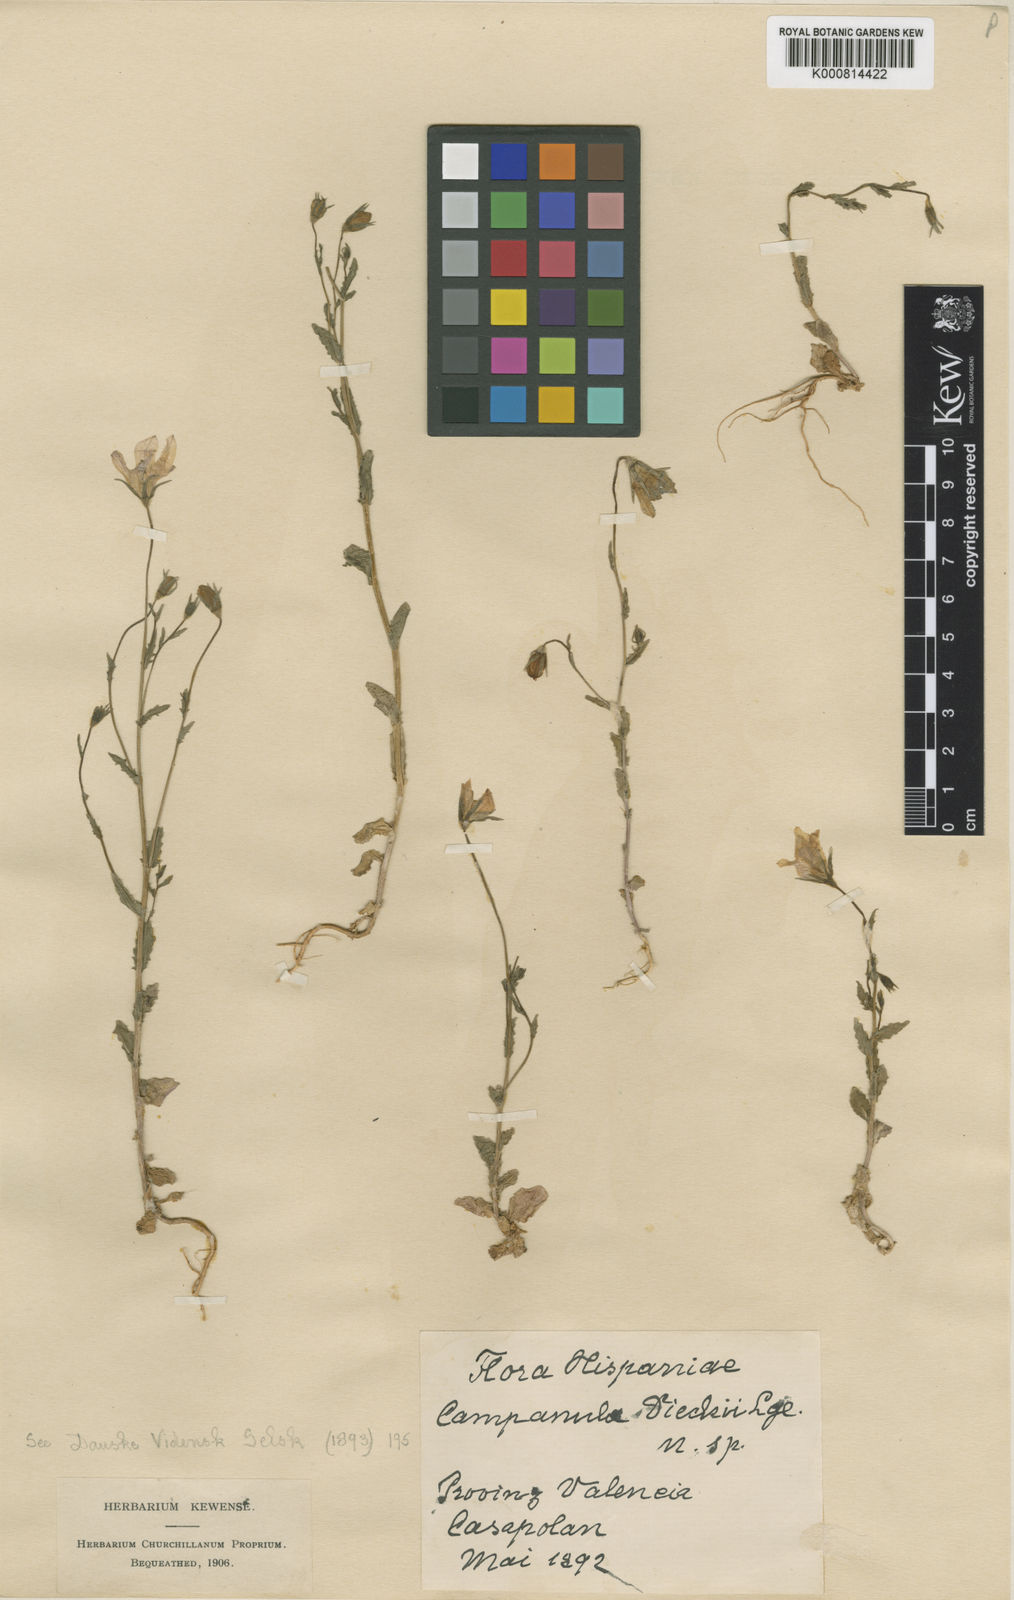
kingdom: Plantae
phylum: Tracheophyta
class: Magnoliopsida
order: Asterales
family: Campanulaceae
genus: Campanula
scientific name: Campanula dieckii
